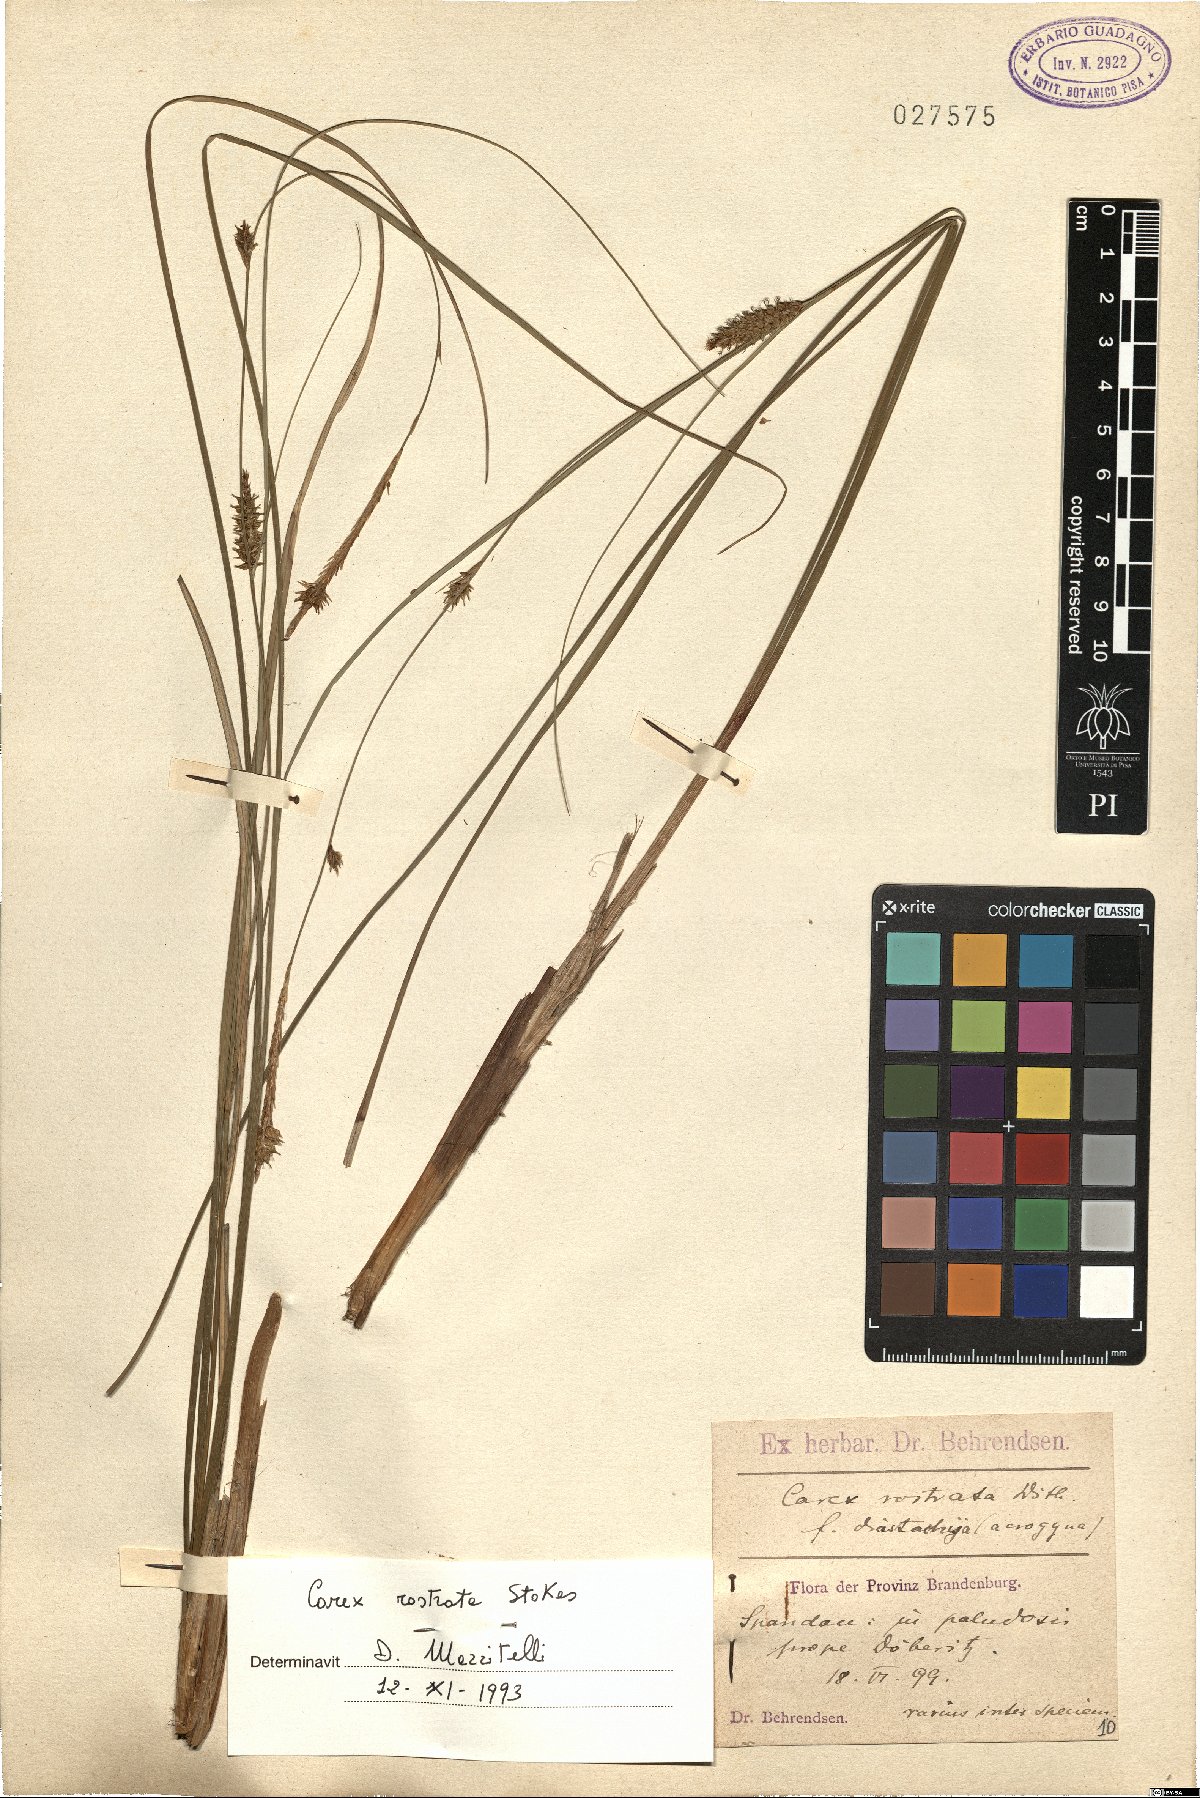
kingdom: Plantae
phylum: Tracheophyta
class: Liliopsida
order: Poales
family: Cyperaceae
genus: Carex
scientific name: Carex rostrata
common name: Bottle sedge
